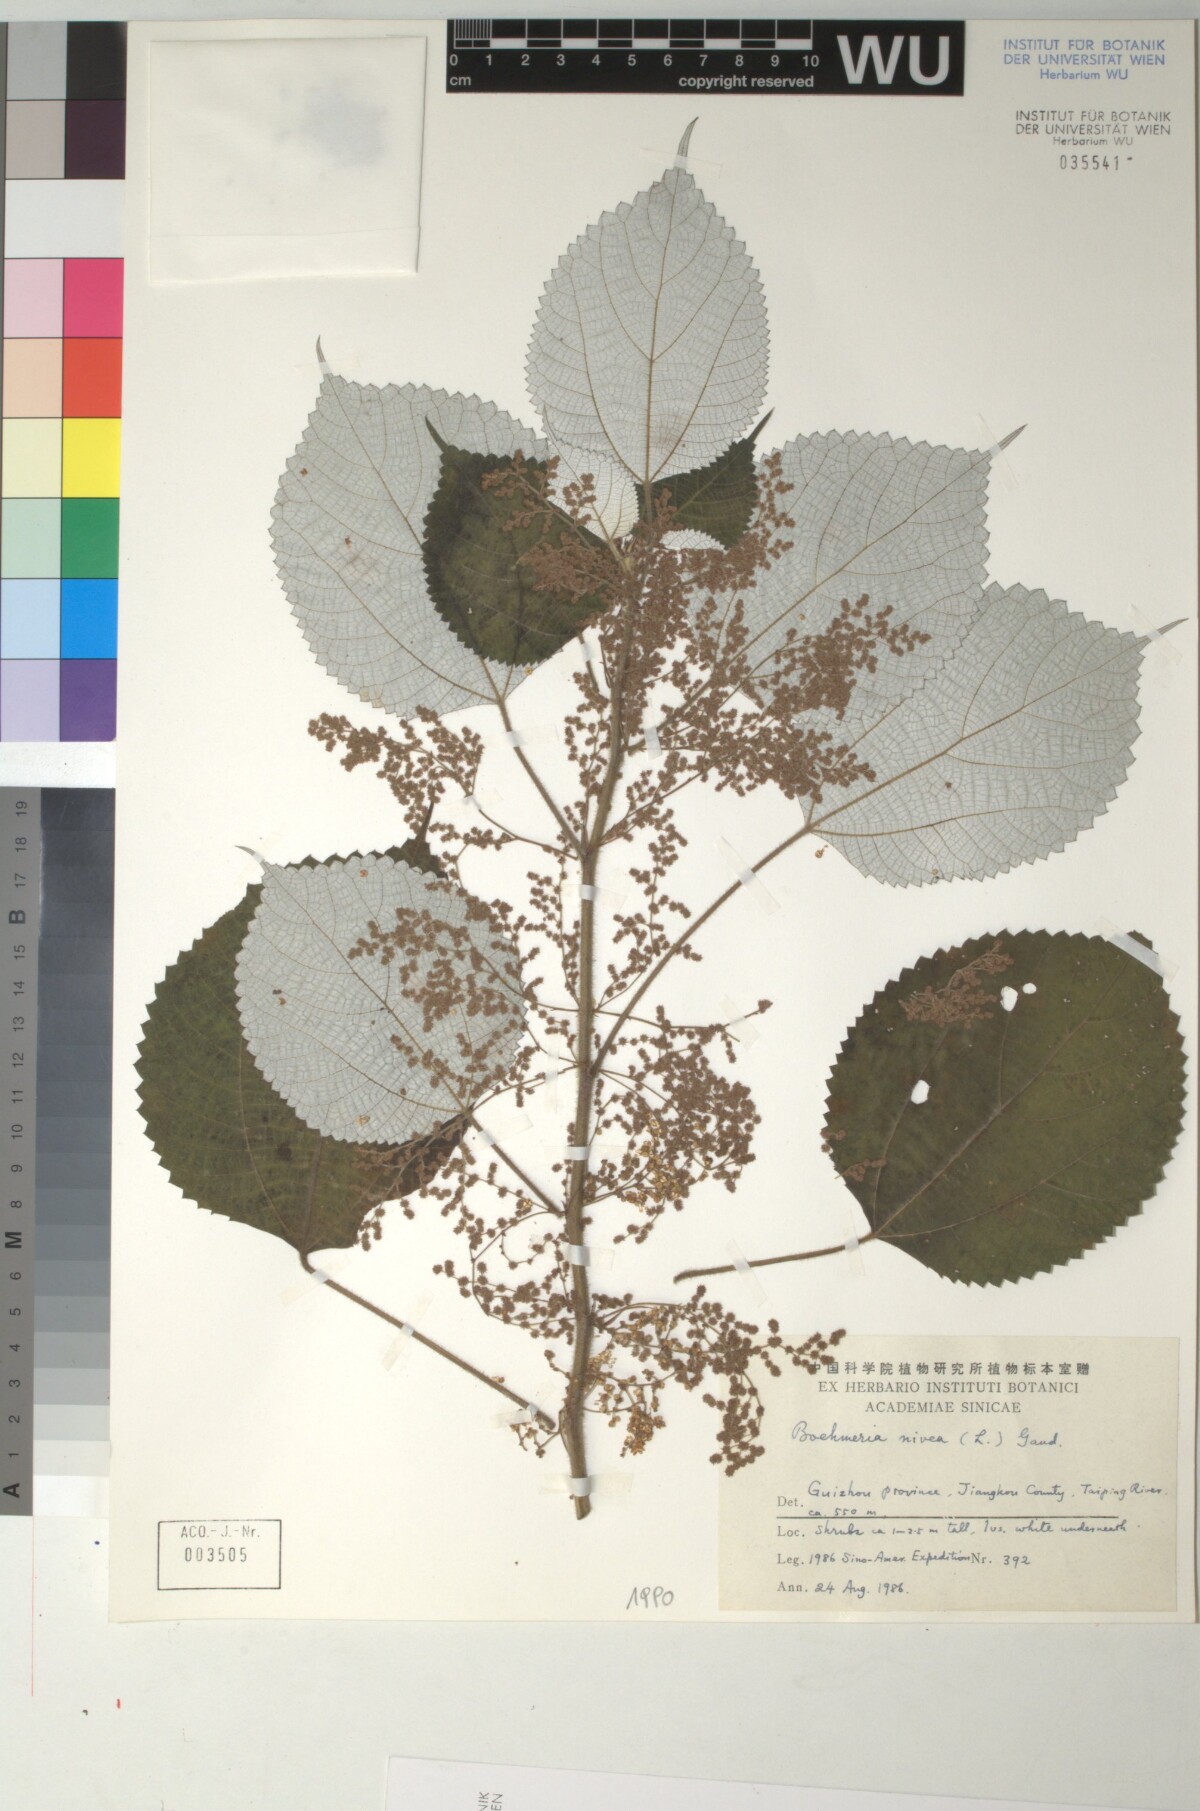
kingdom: Plantae
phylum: Tracheophyta
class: Magnoliopsida
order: Rosales
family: Urticaceae
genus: Boehmeria
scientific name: Boehmeria nivea
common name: Ramie chinese grass
